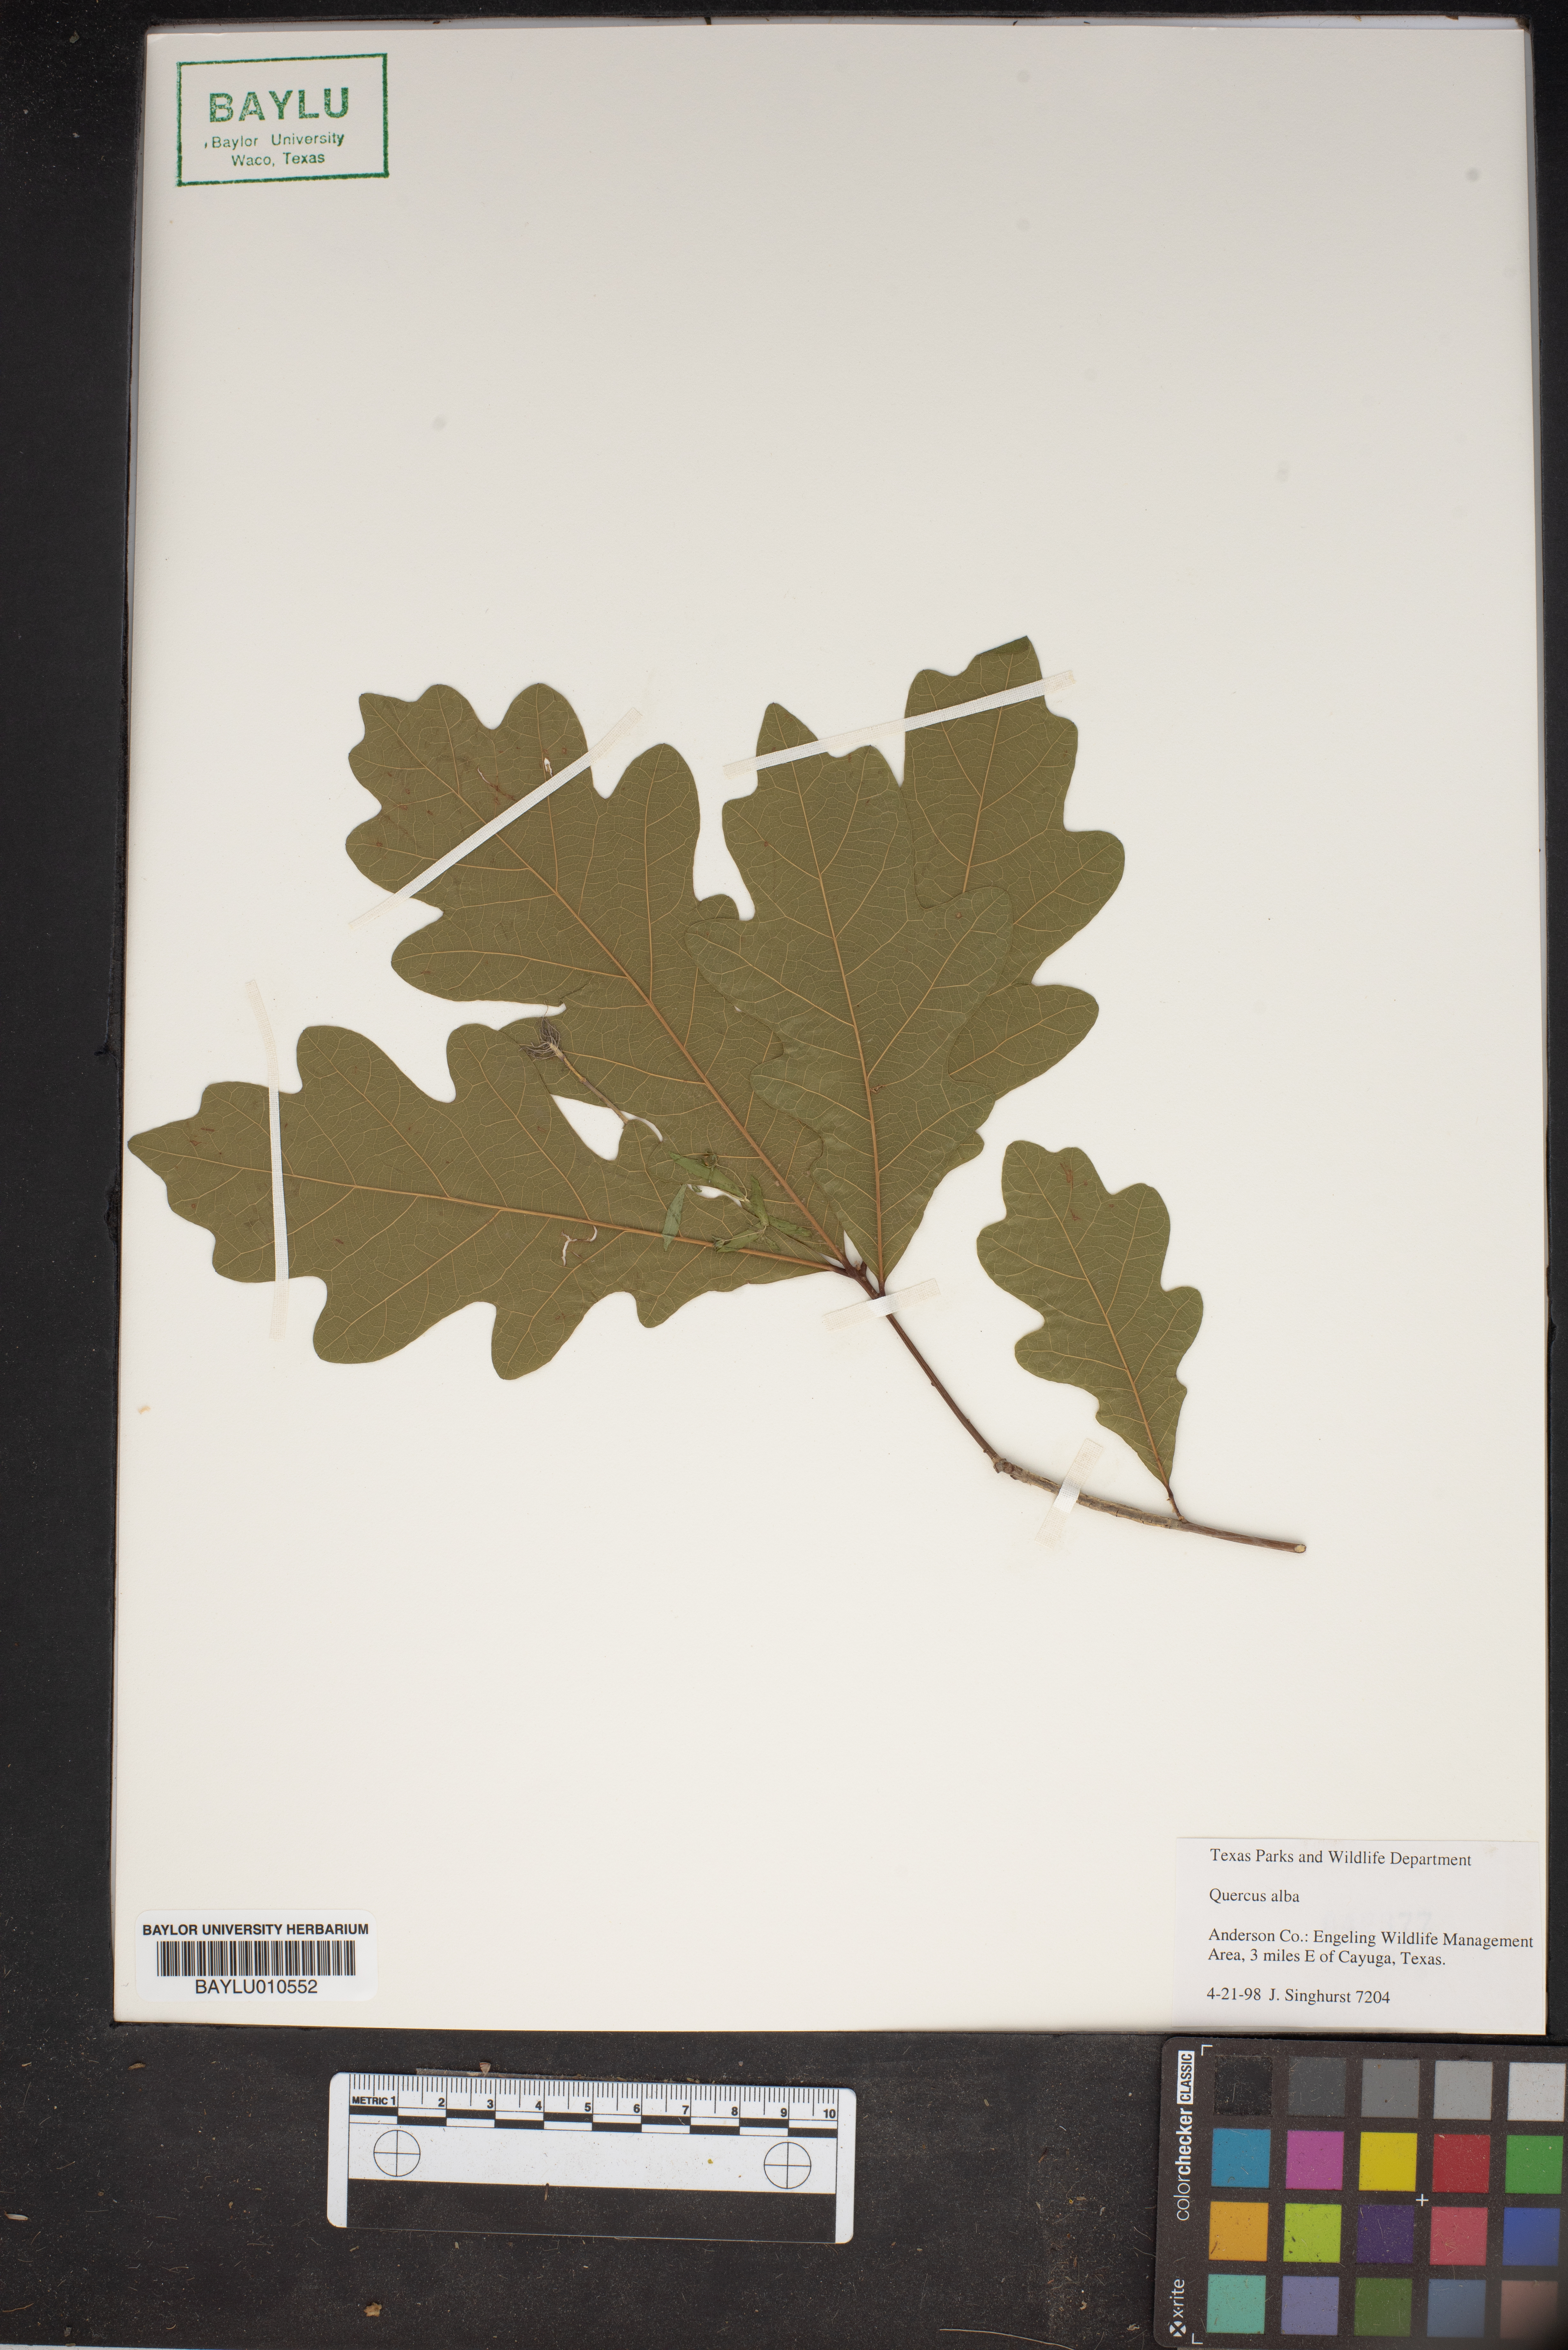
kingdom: Plantae
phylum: Tracheophyta
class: Magnoliopsida
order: Fagales
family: Fagaceae
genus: Quercus
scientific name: Quercus alba
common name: White oak
